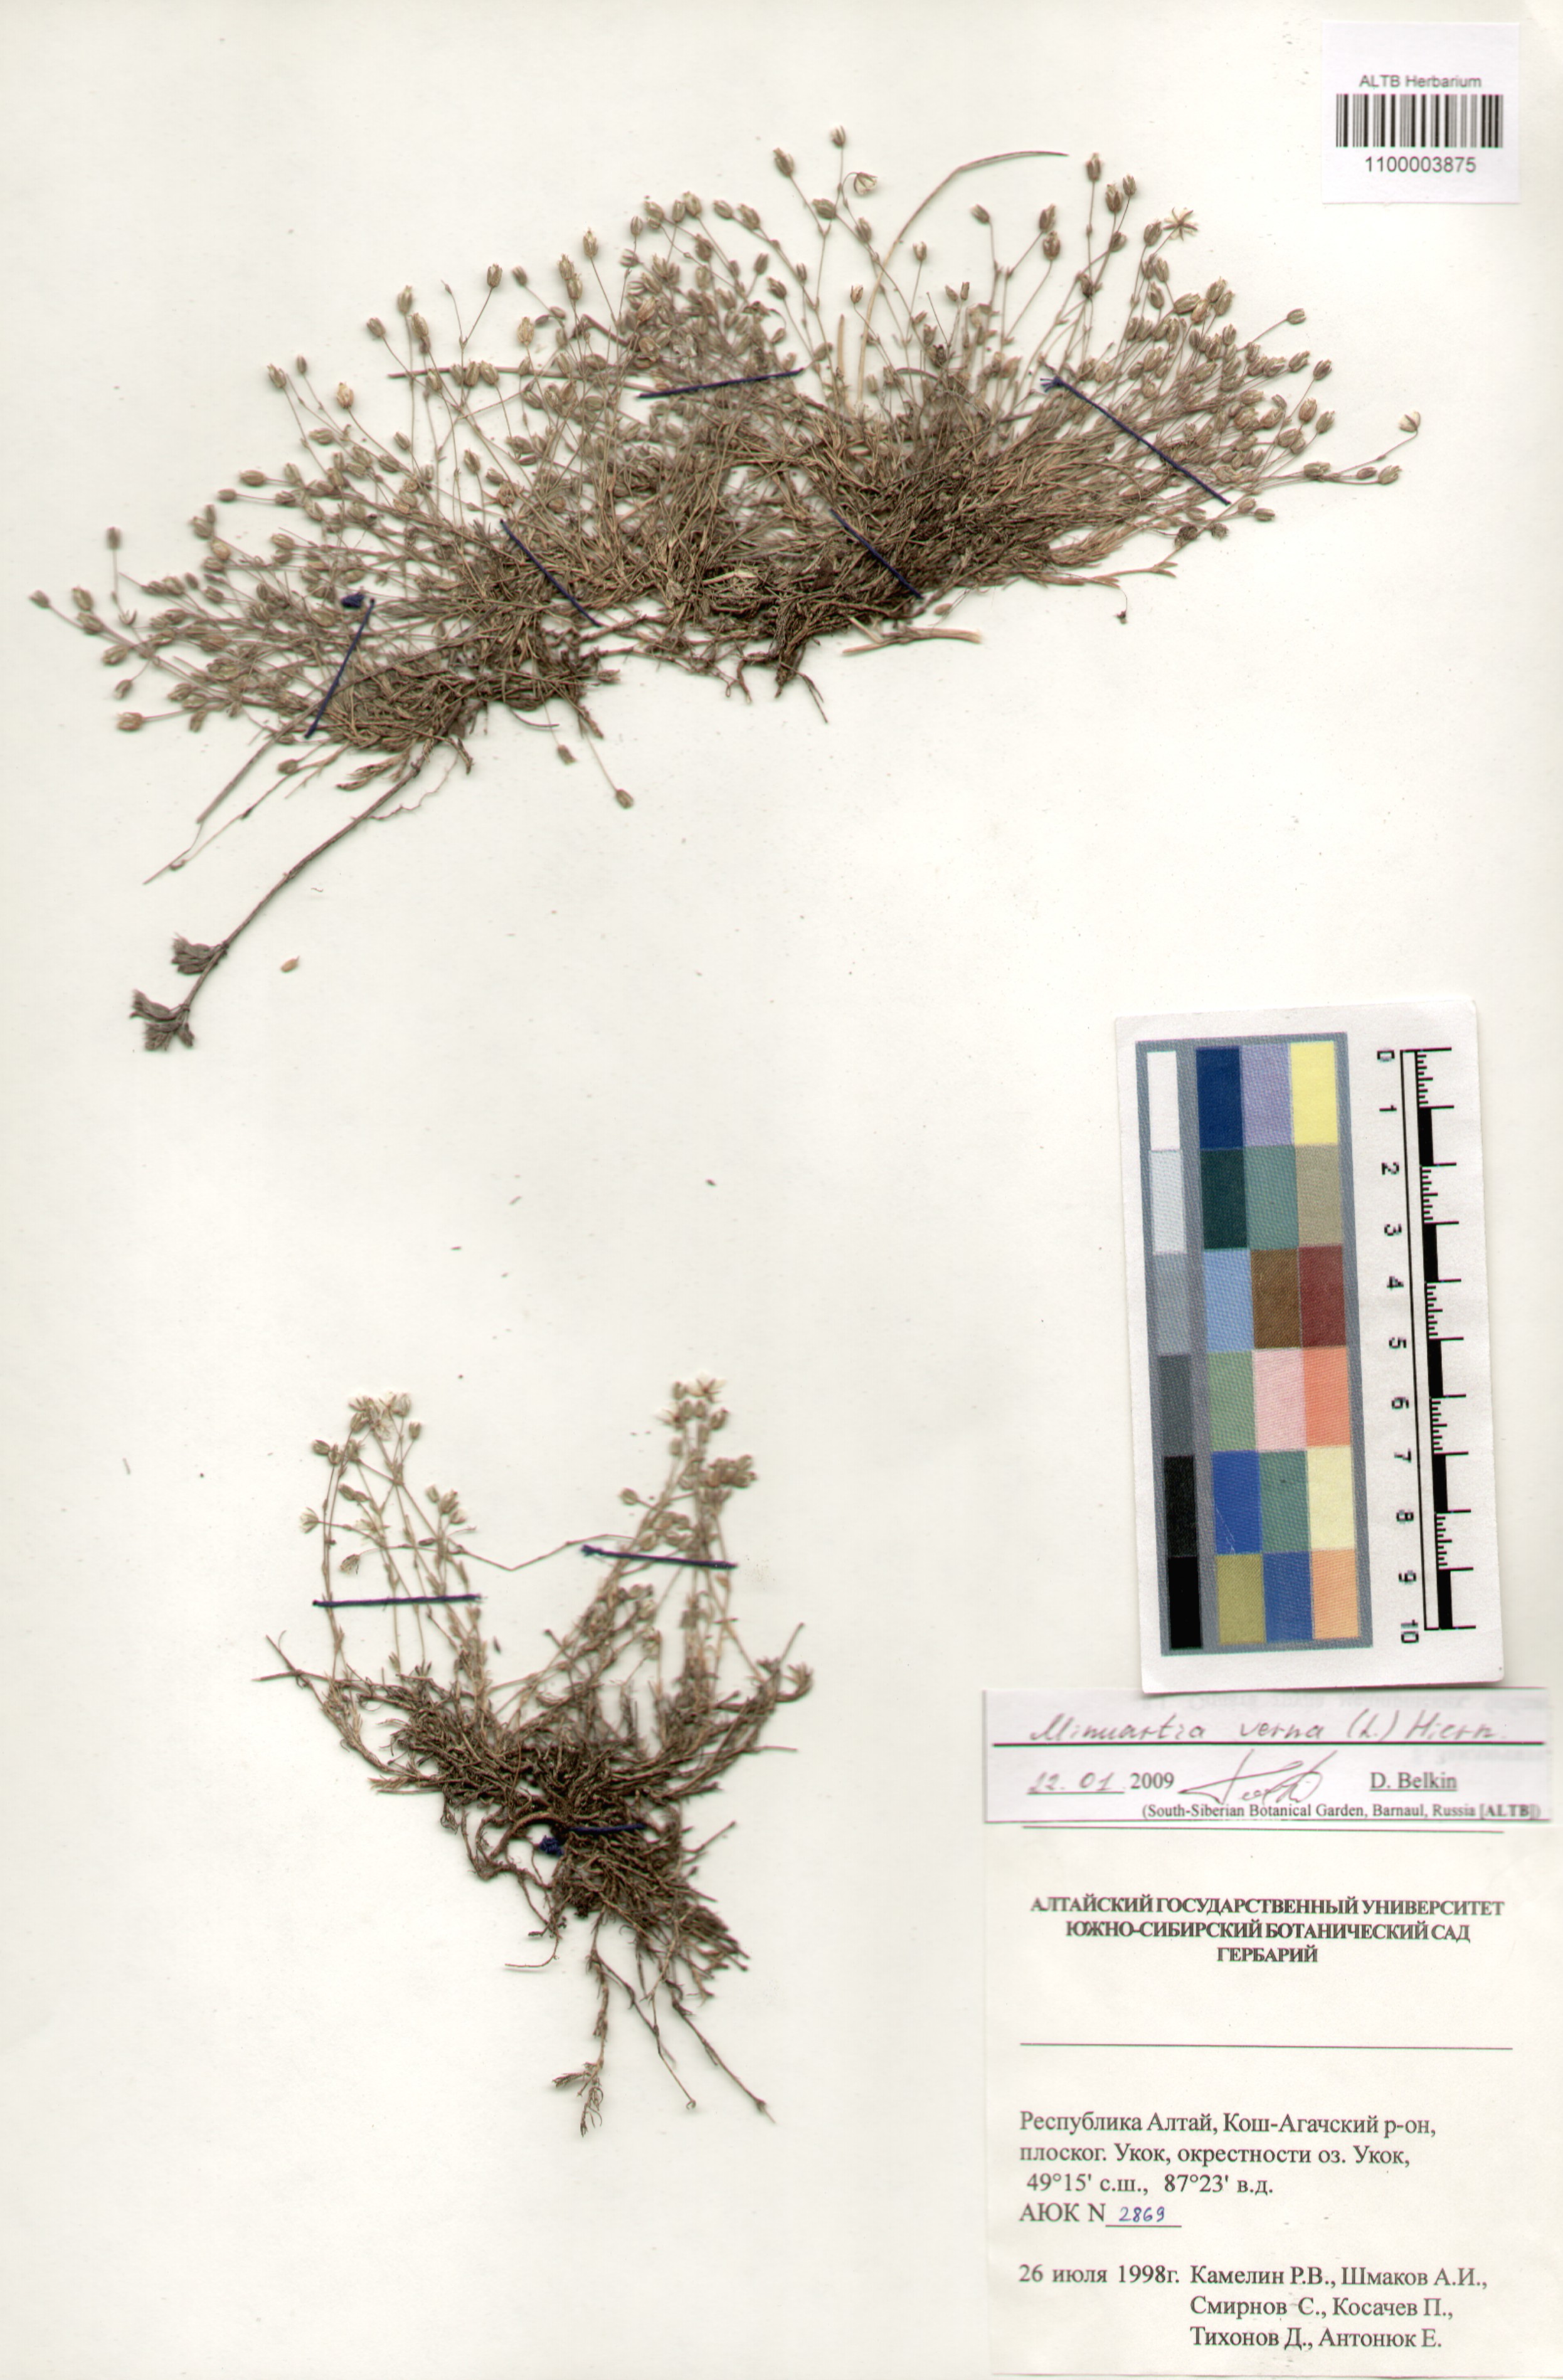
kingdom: Plantae
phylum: Tracheophyta
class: Magnoliopsida
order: Caryophyllales
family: Caryophyllaceae
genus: Sabulina
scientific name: Sabulina verna
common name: Spring sandwort
